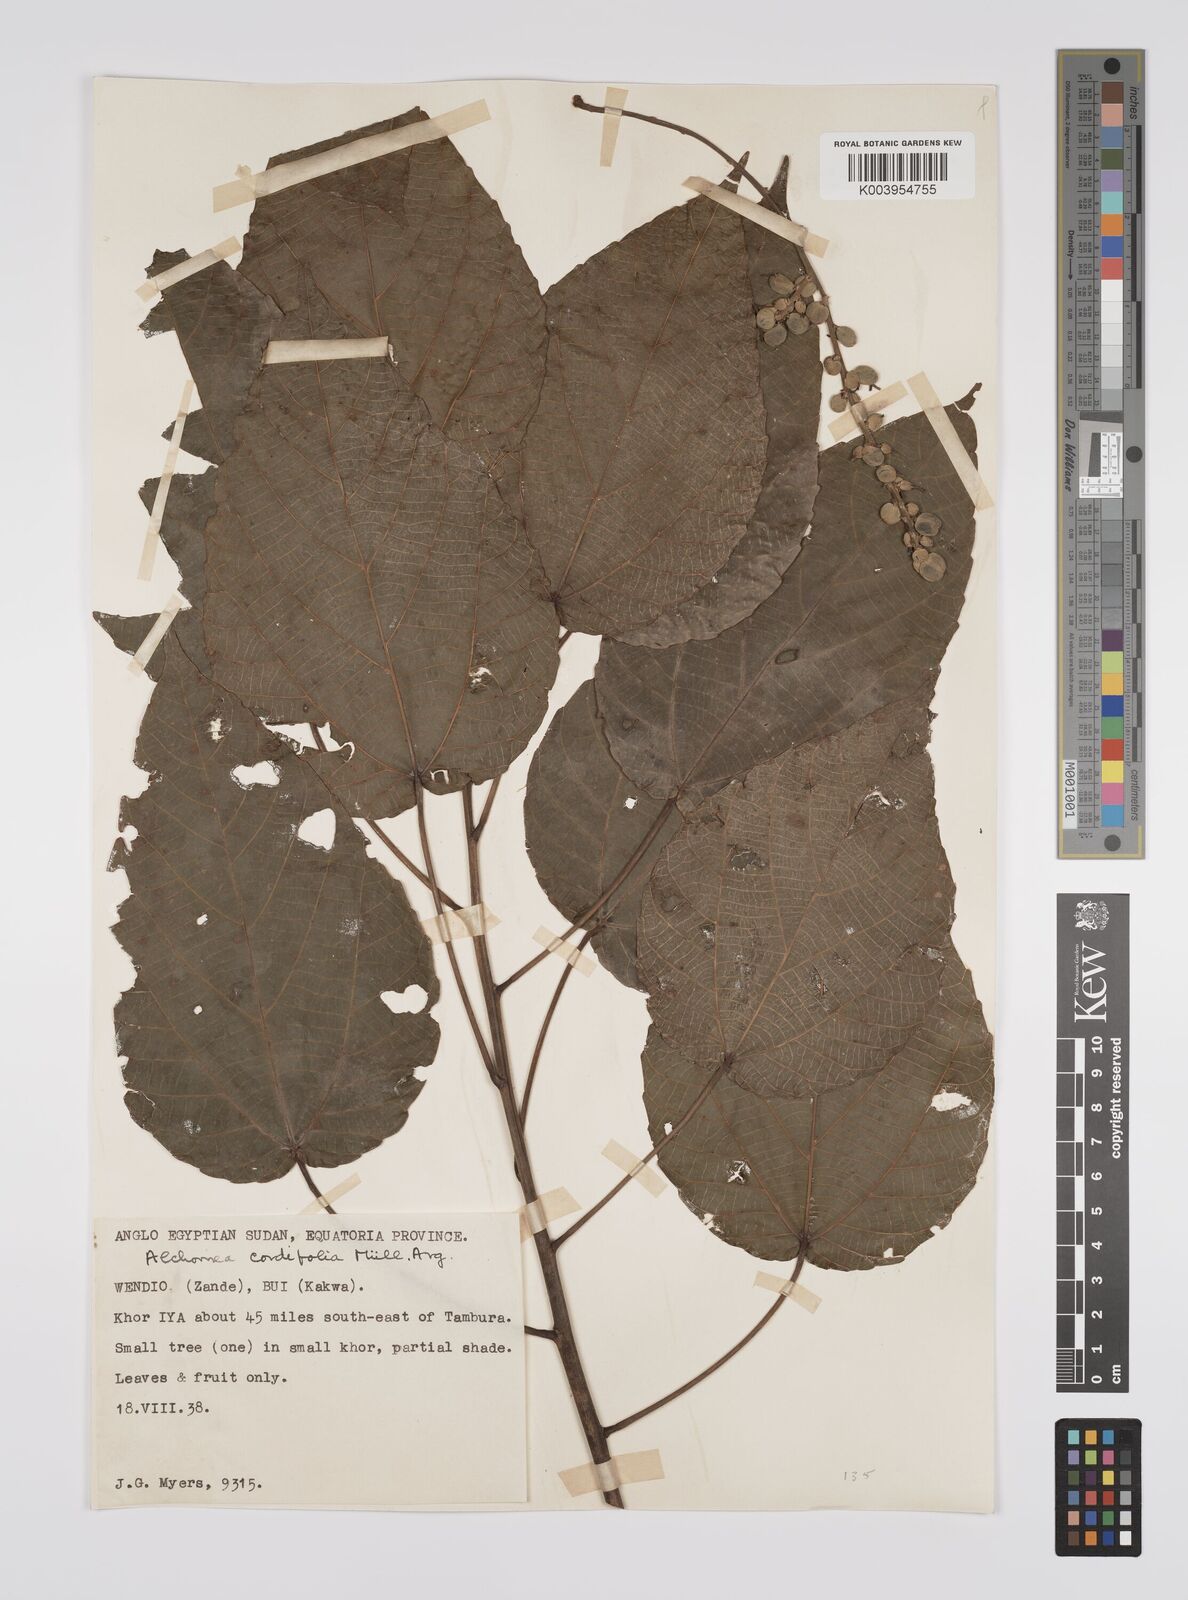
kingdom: Plantae
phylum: Tracheophyta
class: Magnoliopsida
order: Malpighiales
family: Euphorbiaceae
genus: Alchornea
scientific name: Alchornea cordifolia
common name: Christmasbush
